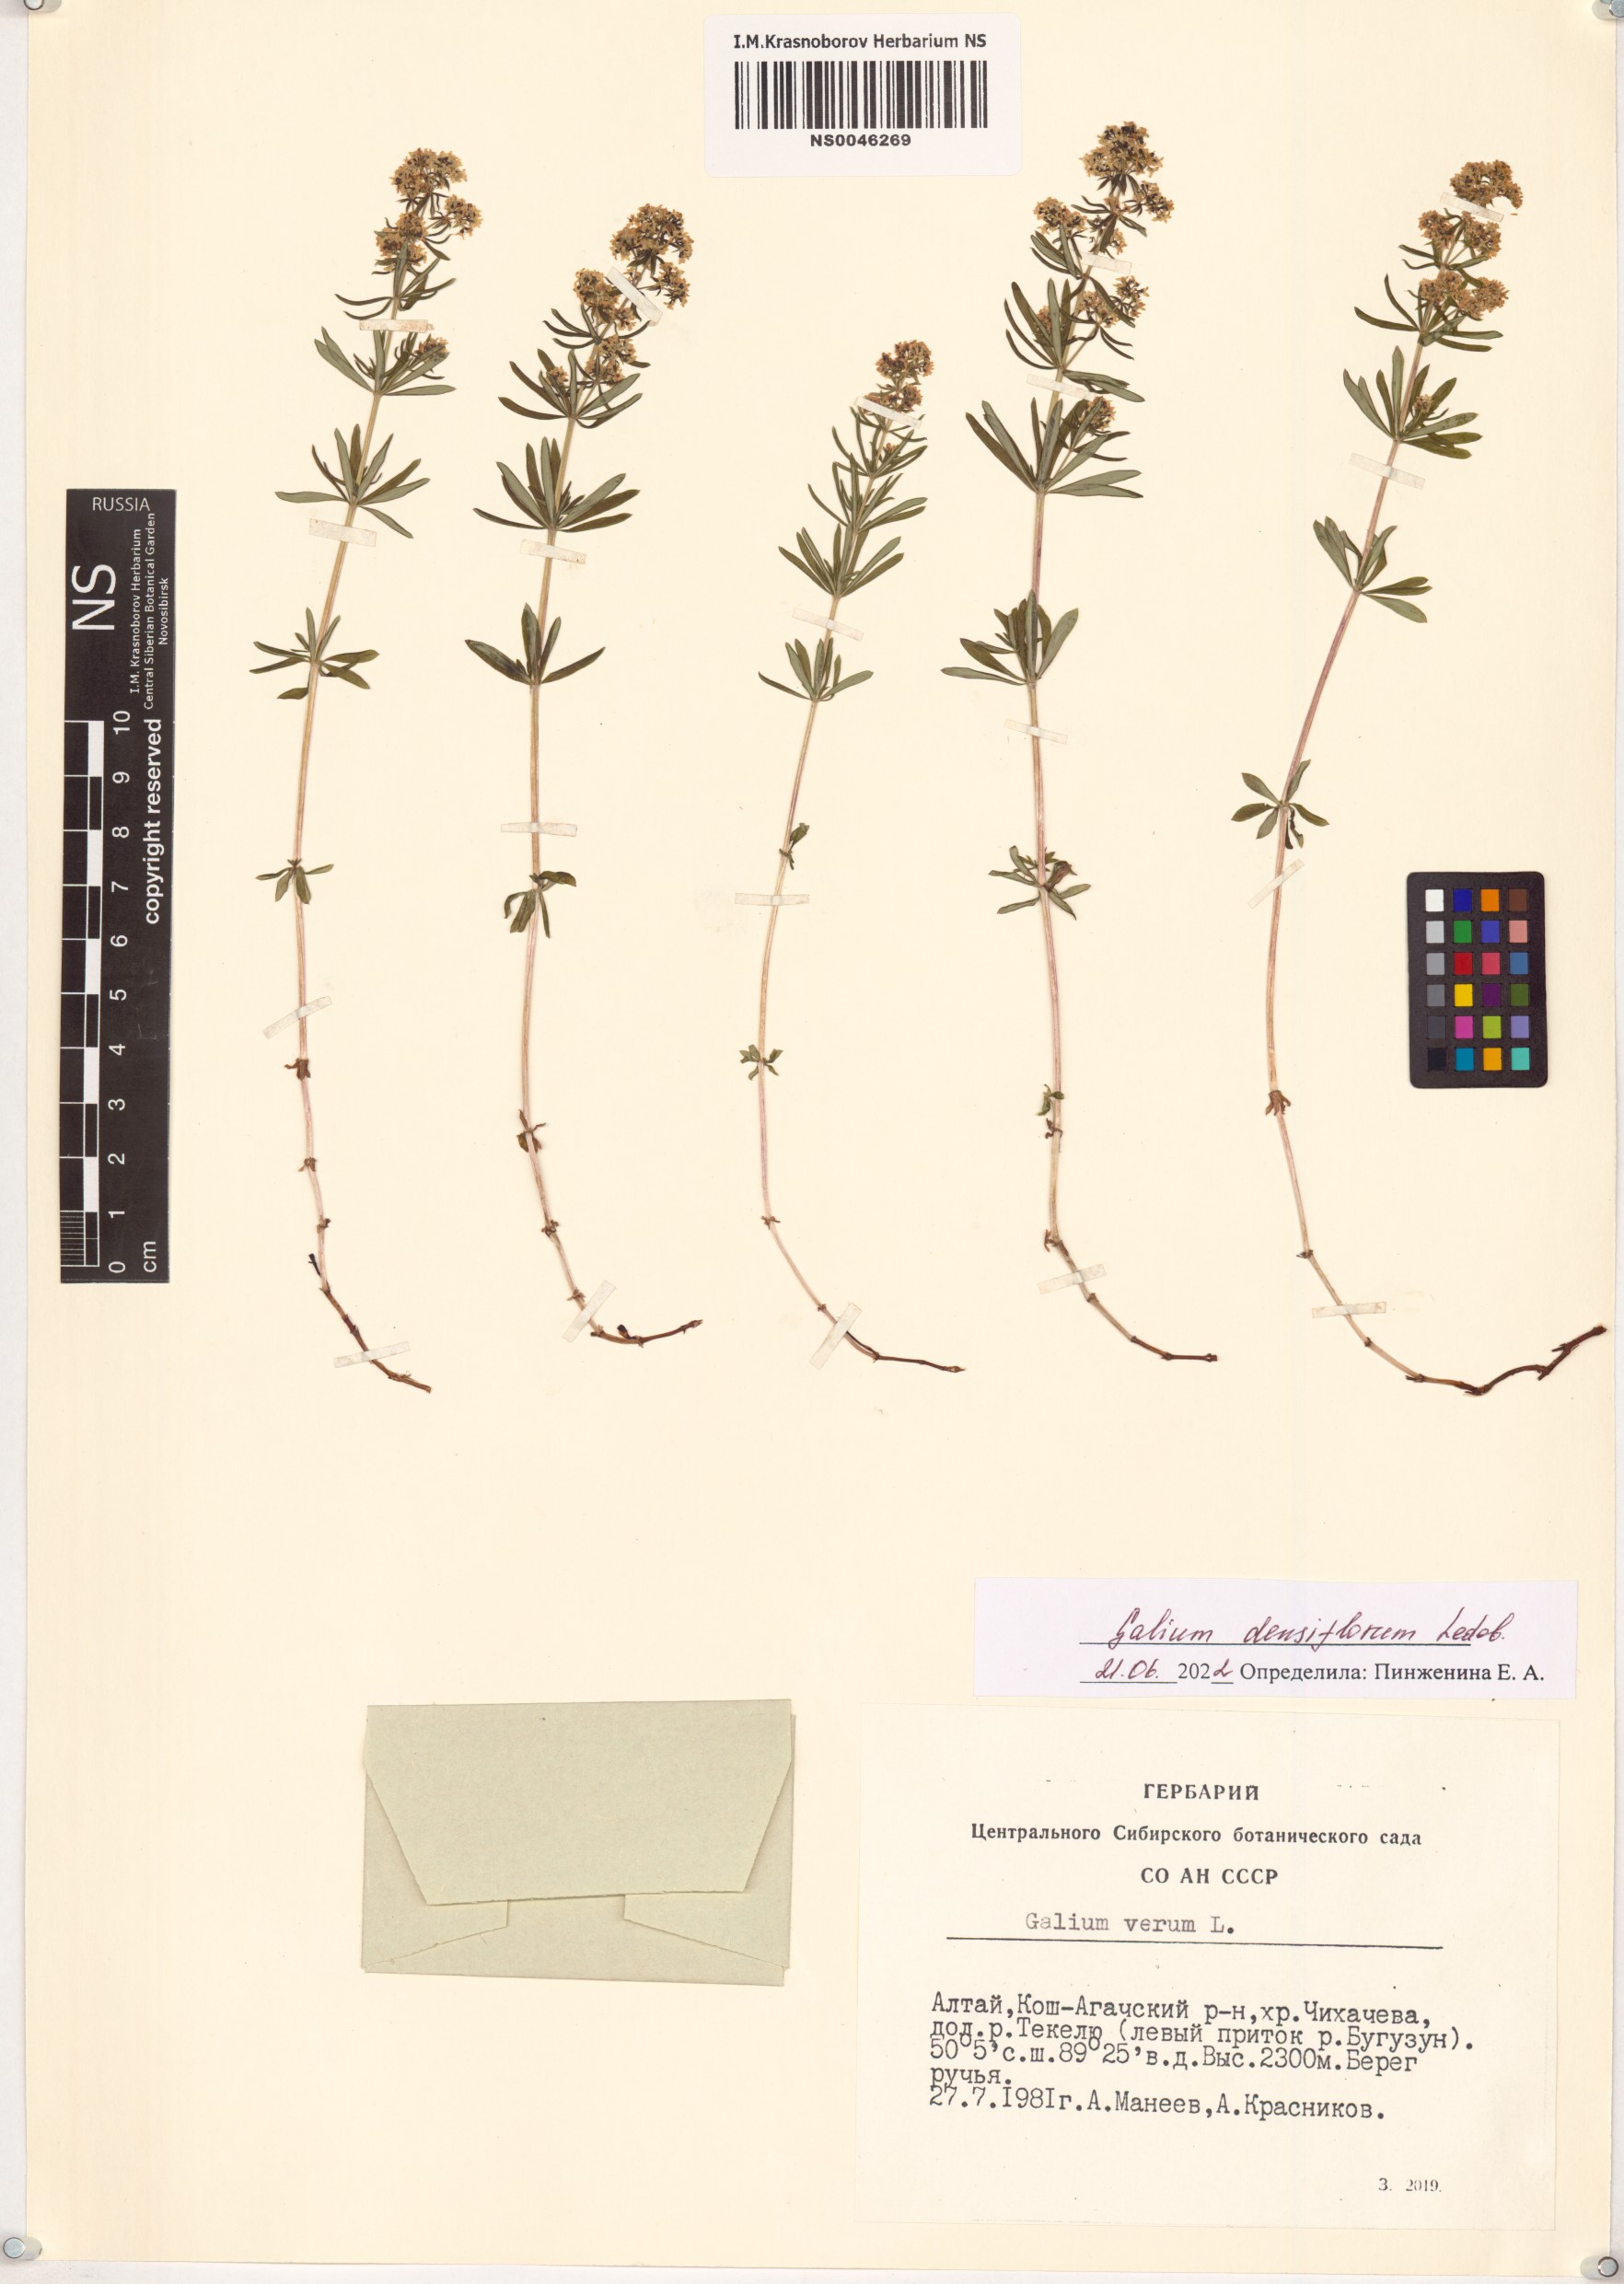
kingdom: Plantae
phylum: Tracheophyta
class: Magnoliopsida
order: Gentianales
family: Rubiaceae
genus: Galium
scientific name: Galium densiflorum
